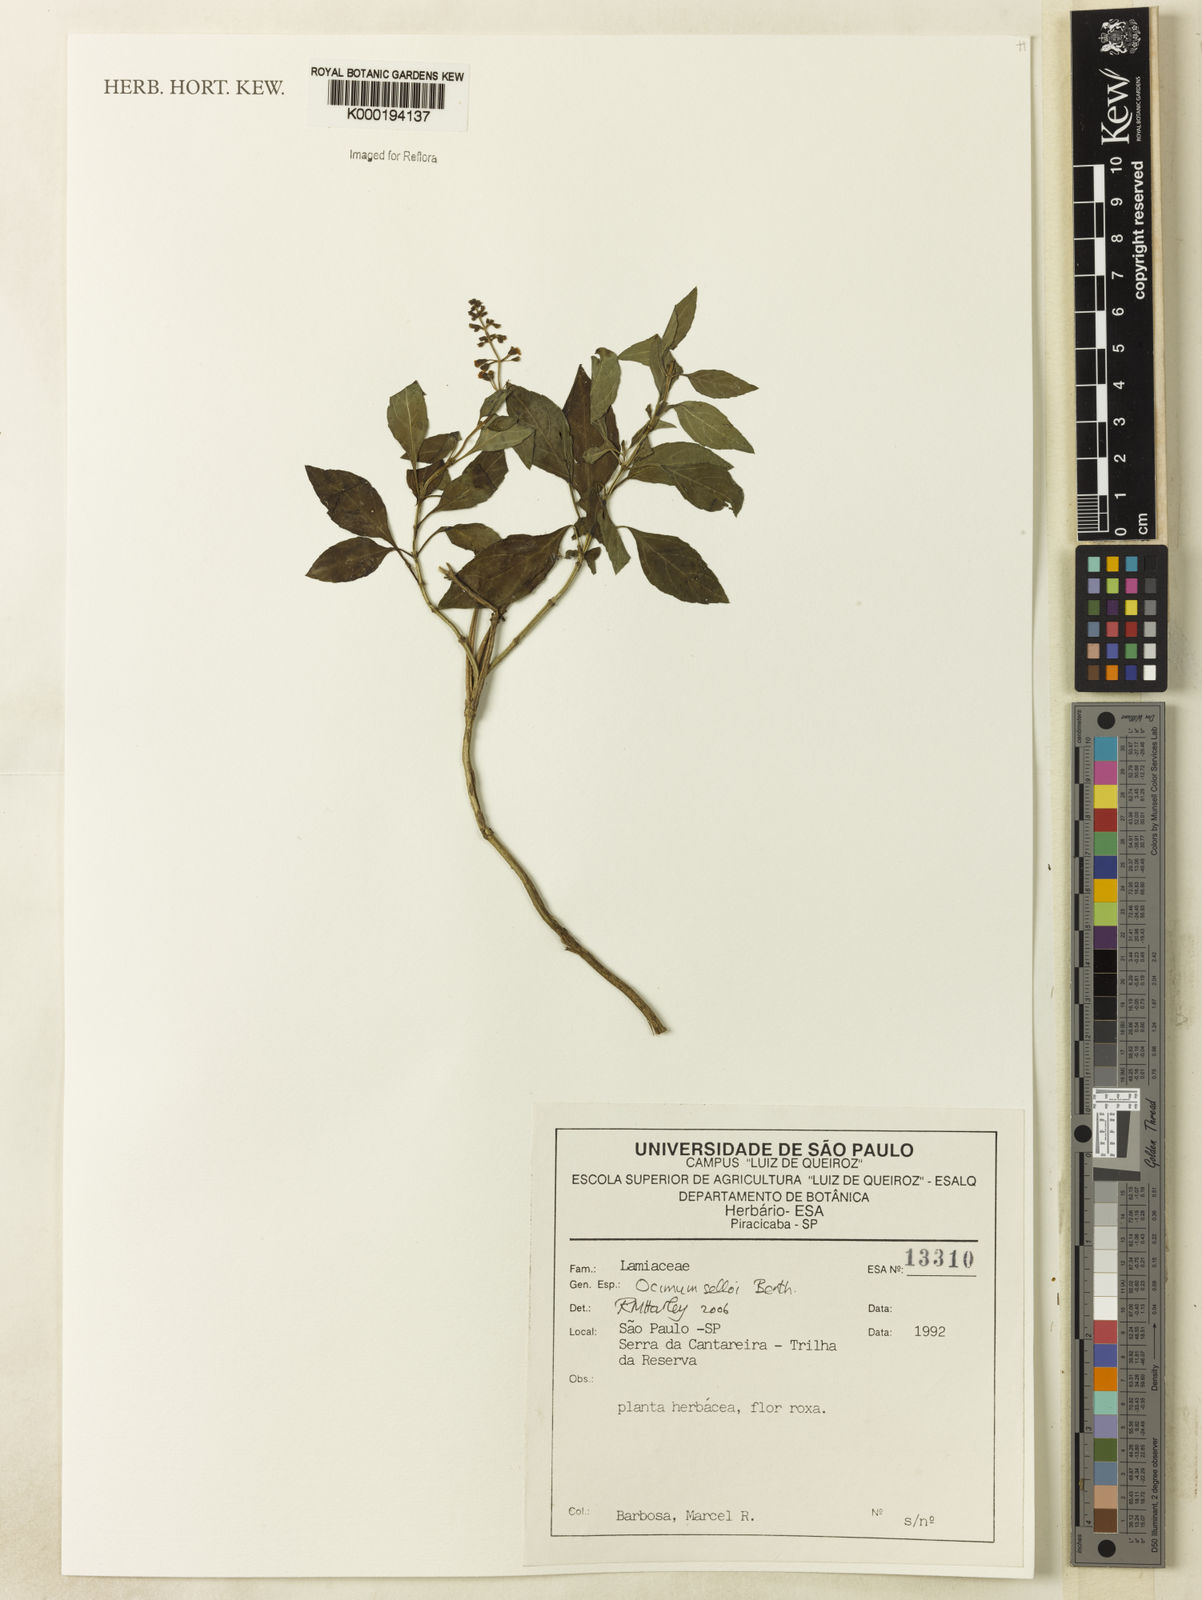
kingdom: Plantae
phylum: Tracheophyta
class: Magnoliopsida
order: Lamiales
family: Lamiaceae
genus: Ocimum
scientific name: Ocimum carnosum
